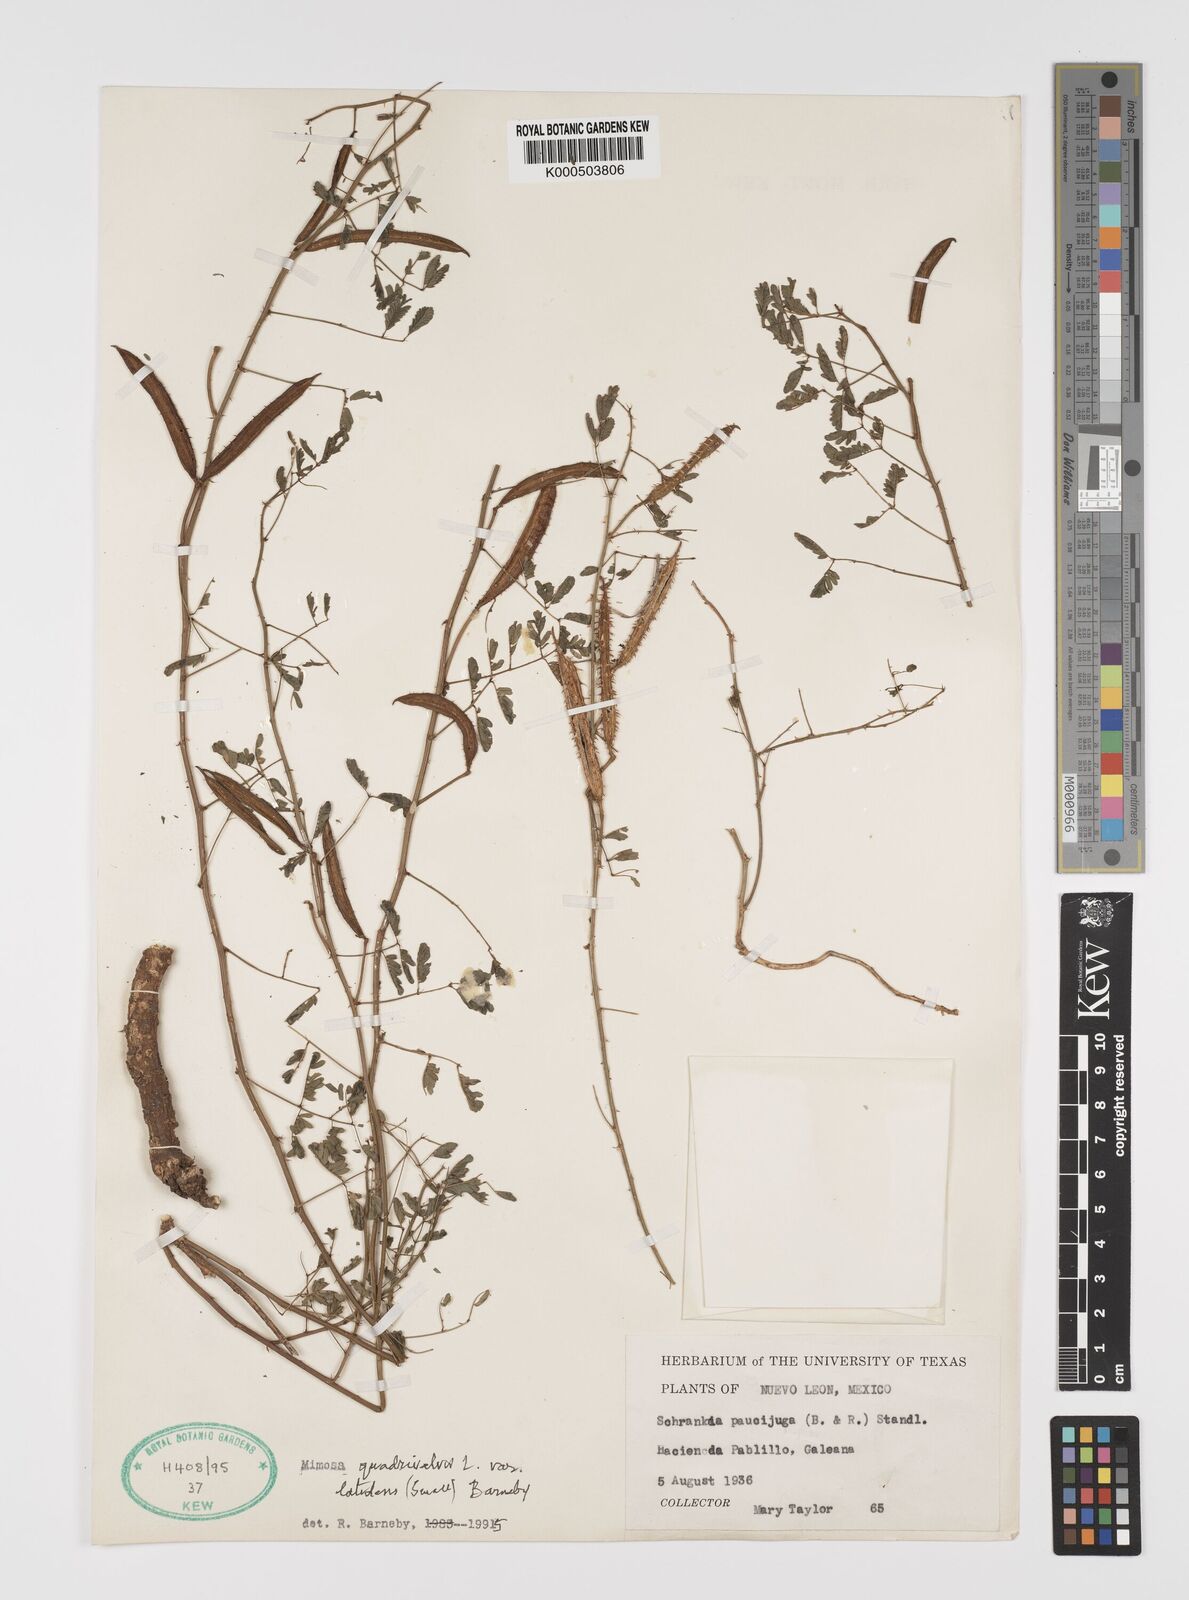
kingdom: Plantae
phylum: Tracheophyta
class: Magnoliopsida
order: Fabales
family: Fabaceae
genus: Mimosa
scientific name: Mimosa latidens
